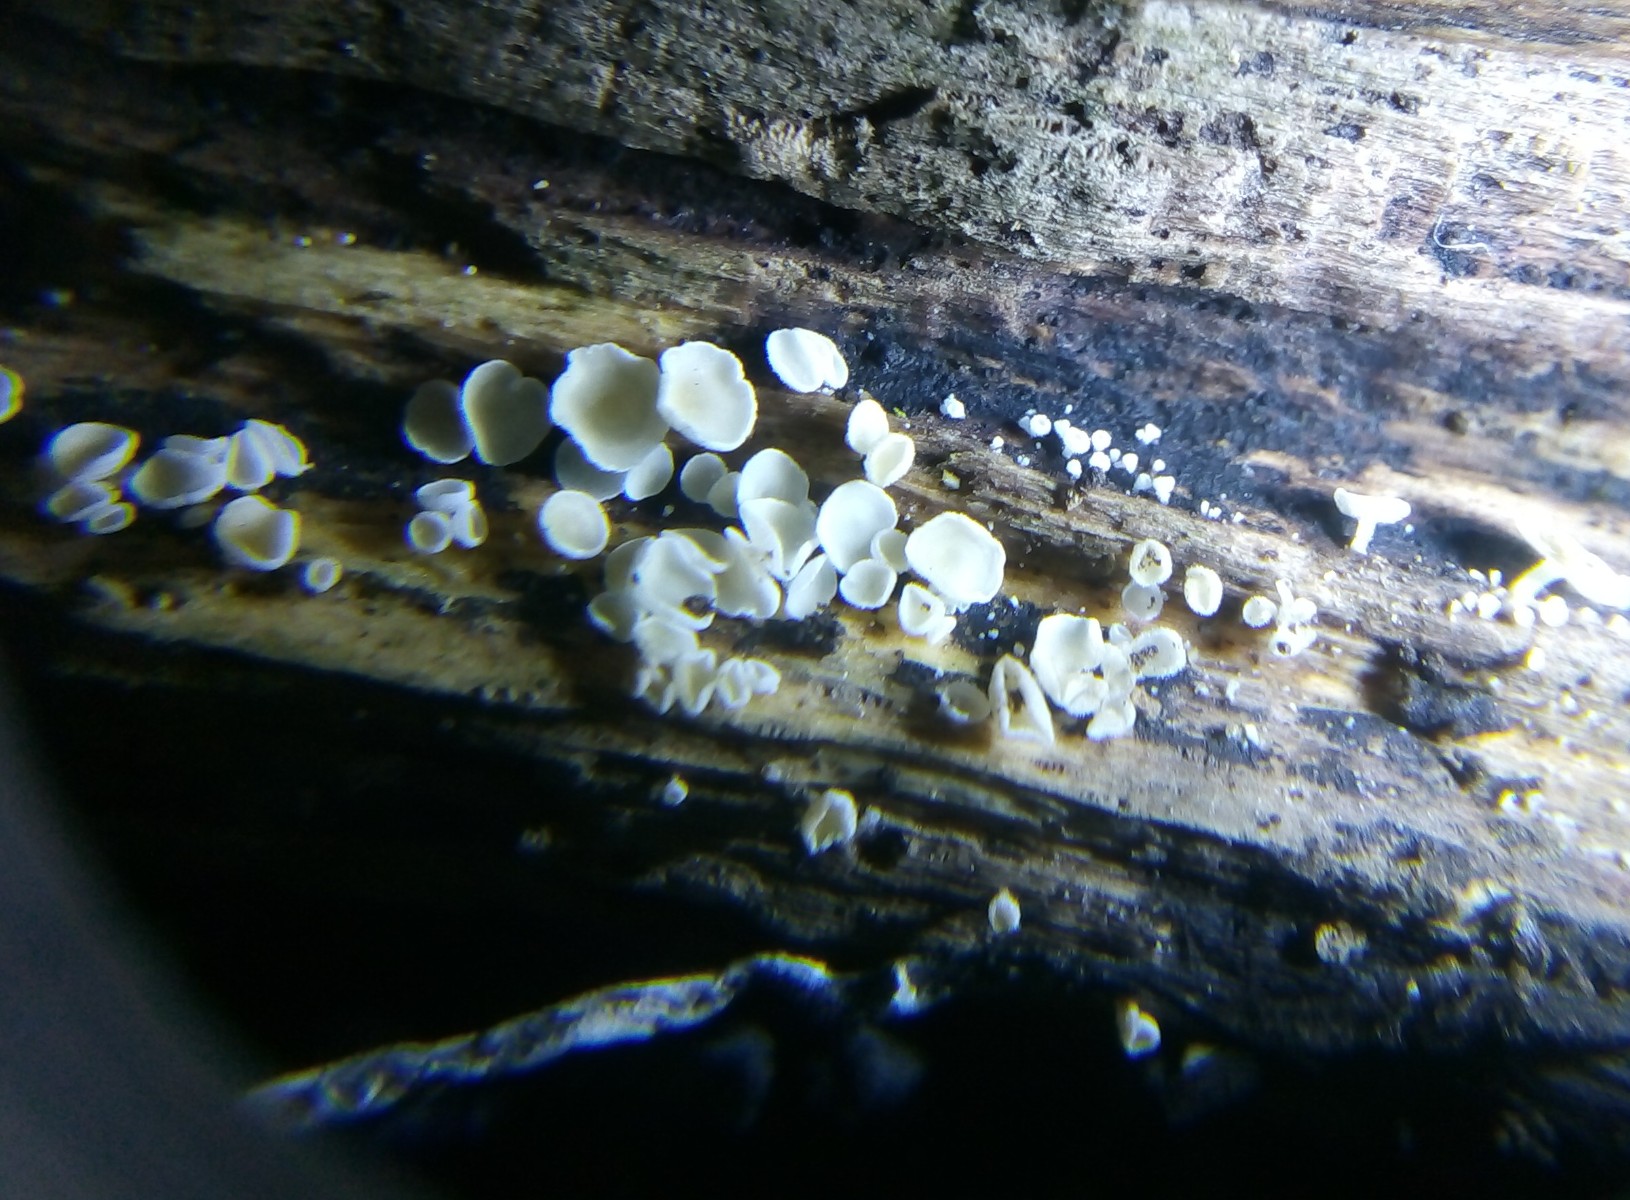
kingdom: Fungi
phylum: Ascomycota
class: Leotiomycetes
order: Helotiales
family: Lachnaceae
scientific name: Lachnaceae
